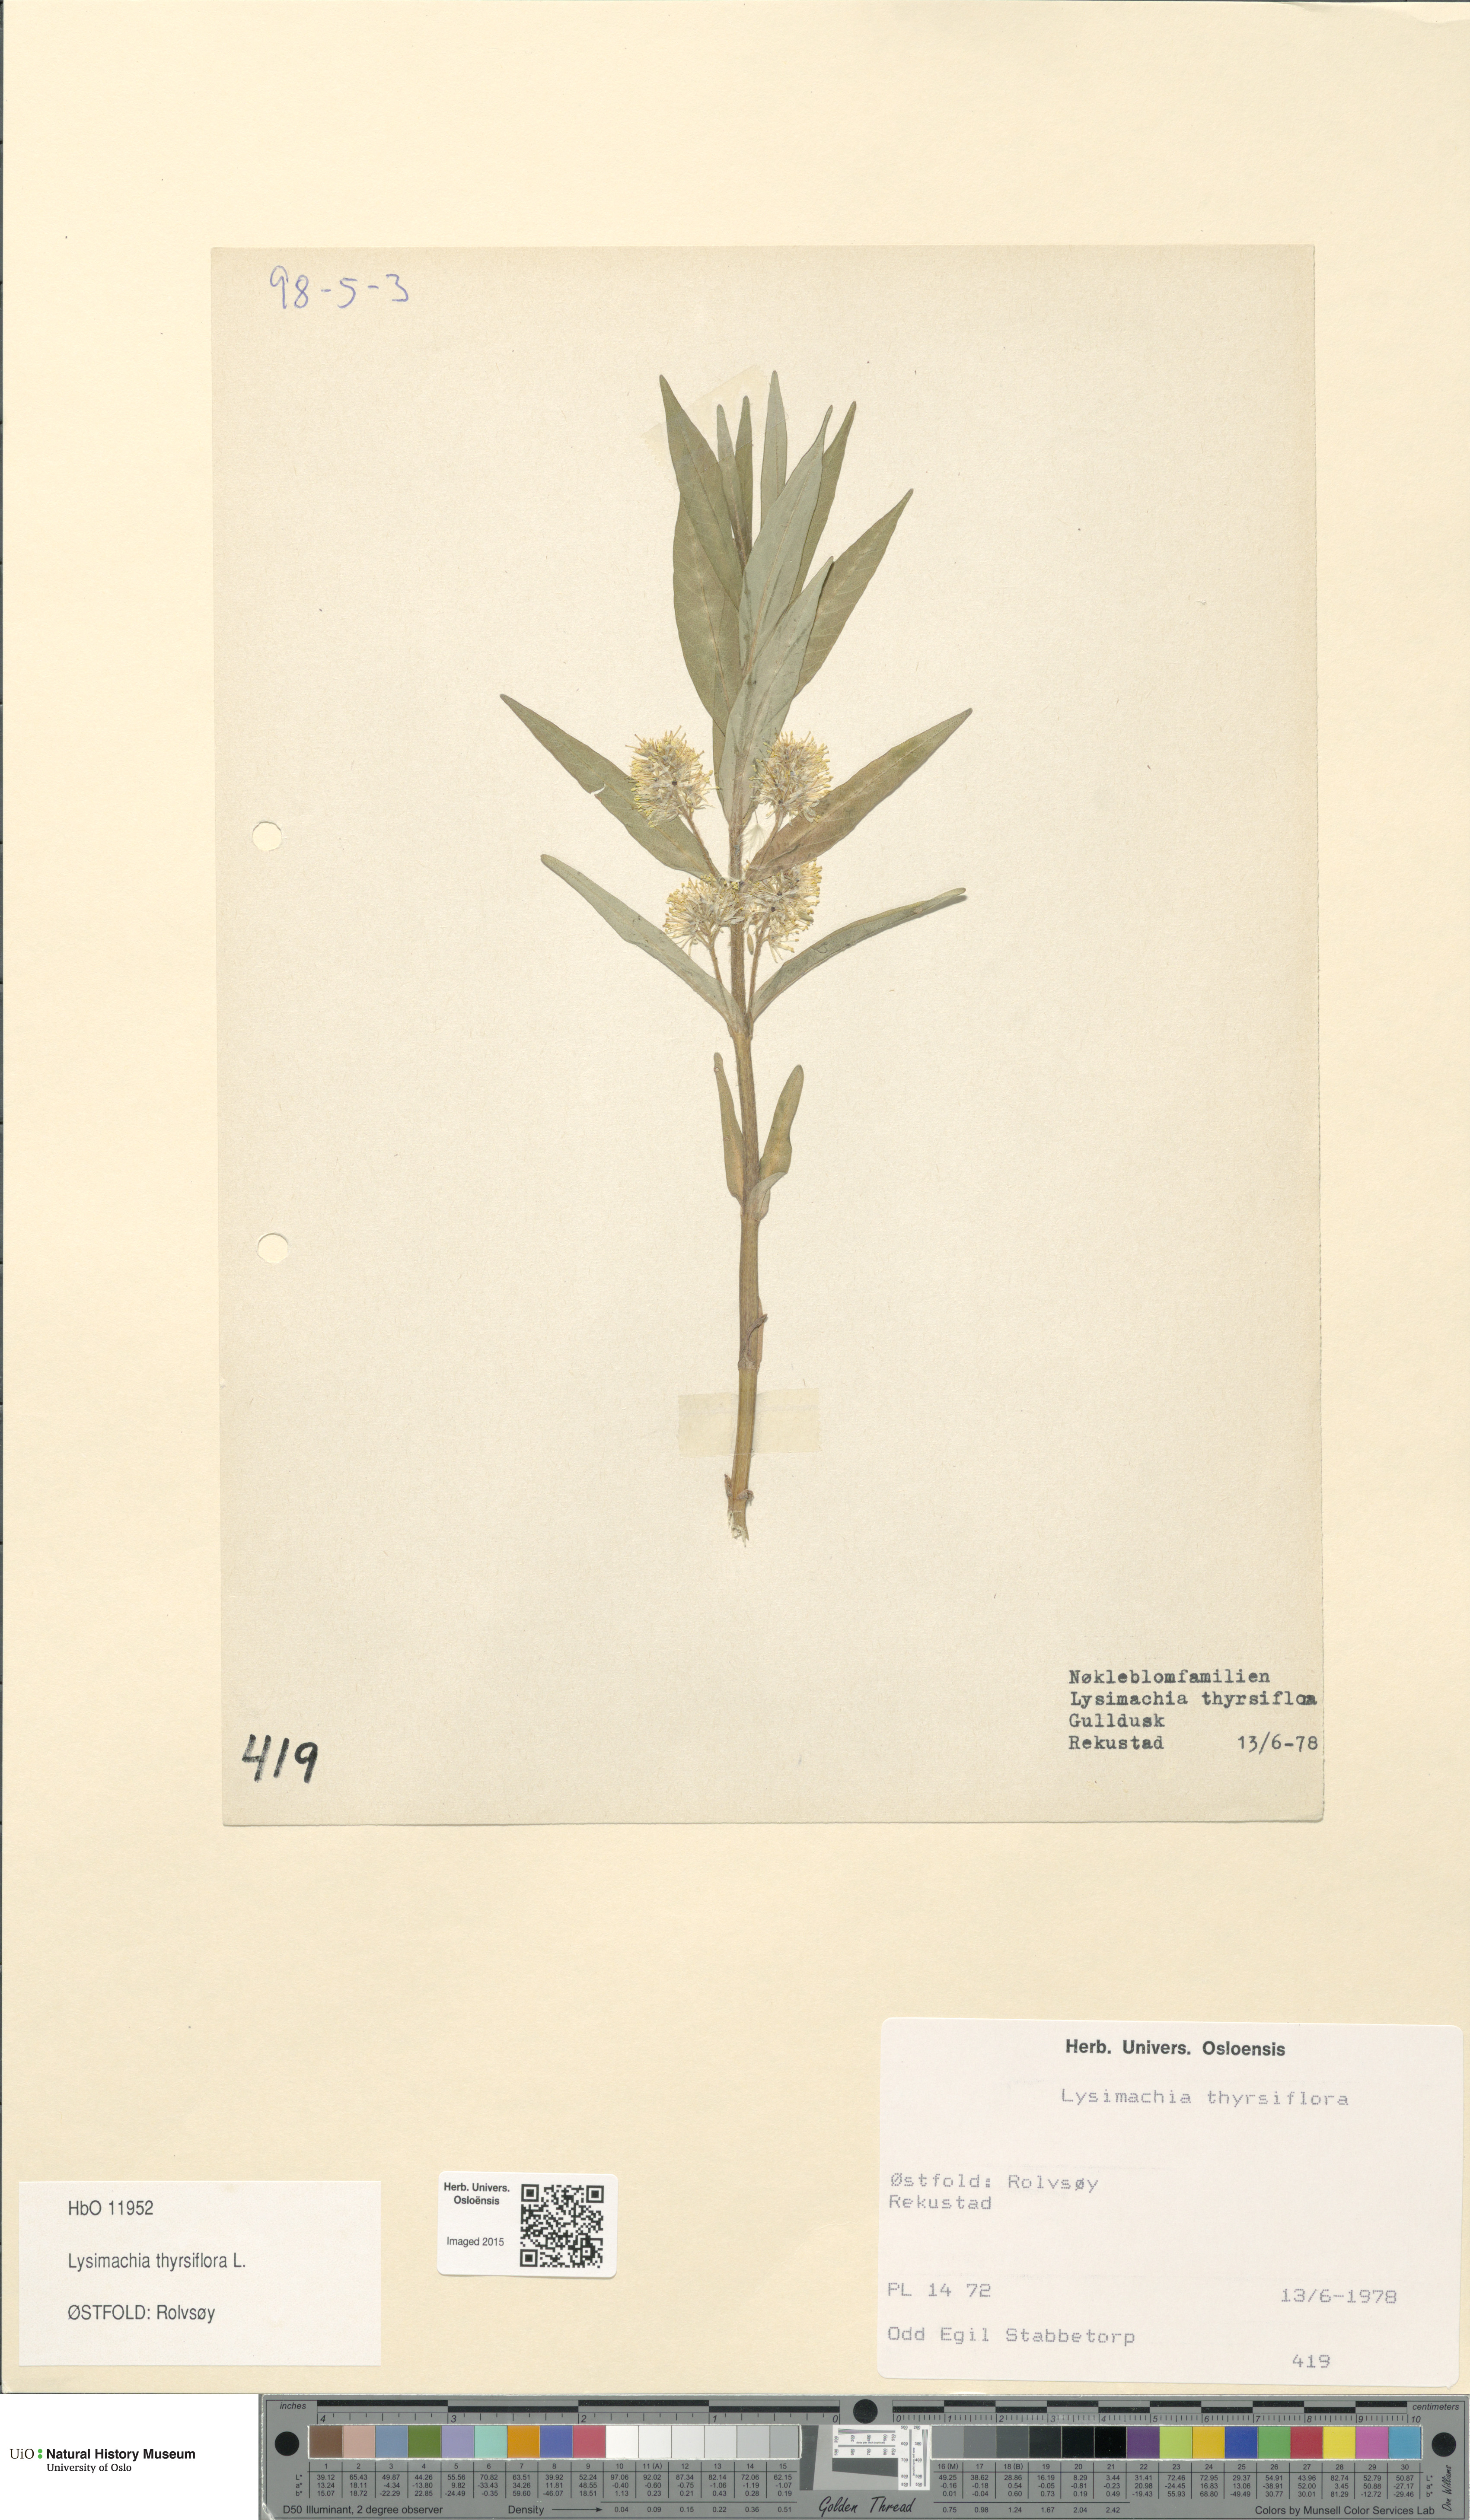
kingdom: Plantae
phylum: Tracheophyta
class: Magnoliopsida
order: Ericales
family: Primulaceae
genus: Lysimachia
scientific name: Lysimachia thyrsiflora
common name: Tufted loosestrife
